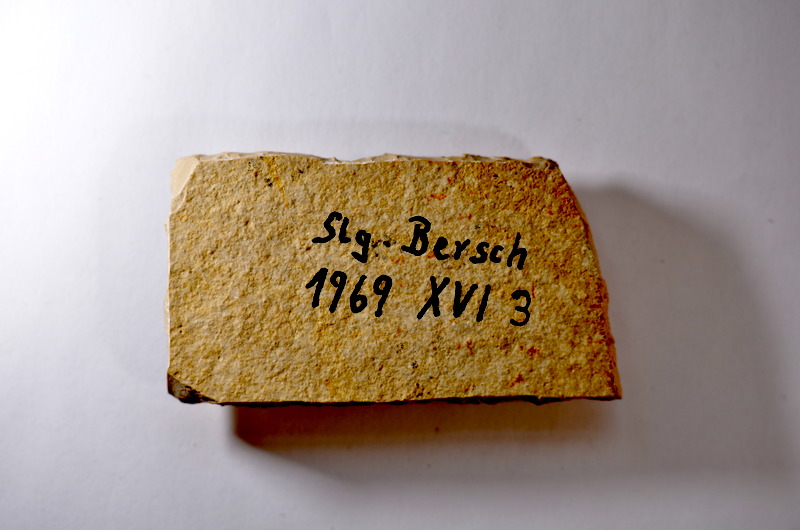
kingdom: Animalia
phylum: Chordata
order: Salmoniformes
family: Orthogonikleithridae
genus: Leptolepides
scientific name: Leptolepides sprattiformis
